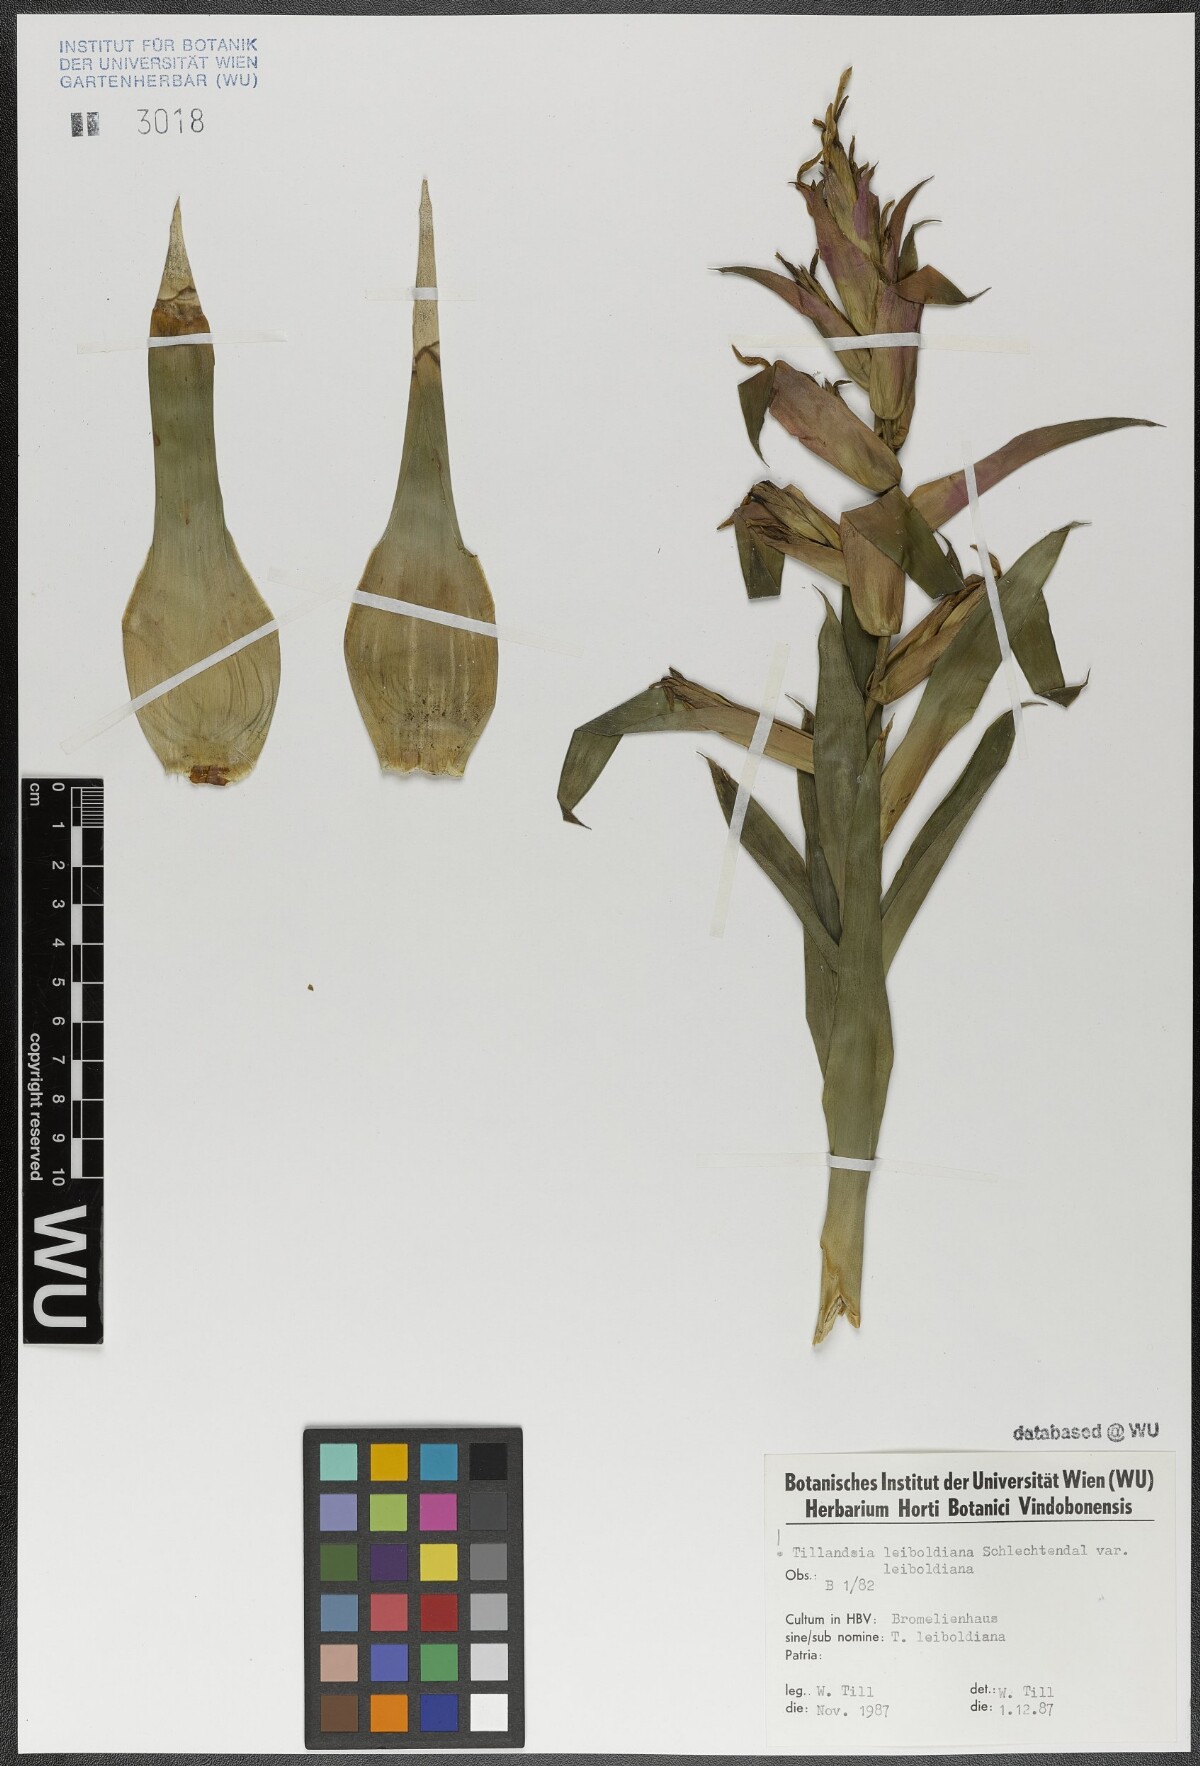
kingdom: Plantae
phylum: Tracheophyta
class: Liliopsida
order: Poales
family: Bromeliaceae
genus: Tillandsia
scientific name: Tillandsia leiboldiana
